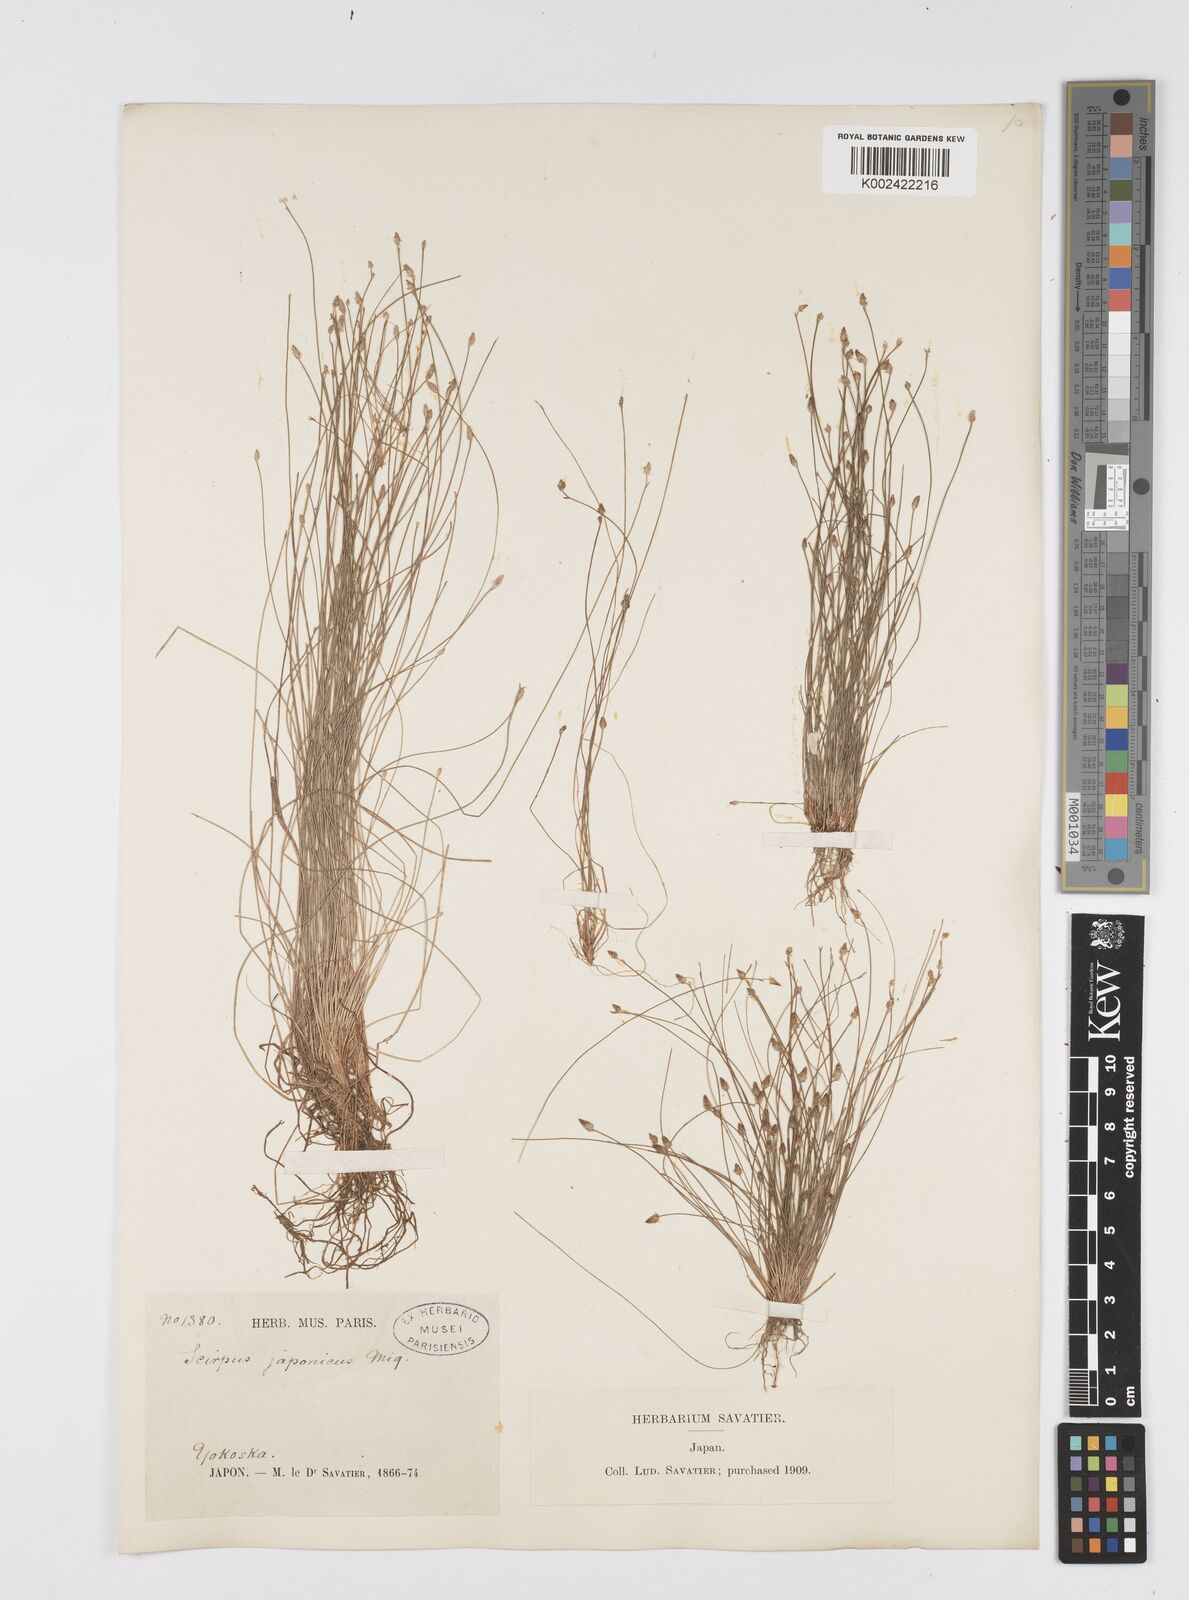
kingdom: Plantae
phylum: Tracheophyta
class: Liliopsida
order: Poales
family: Cyperaceae
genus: Eleocharis
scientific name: Eleocharis pellucida
